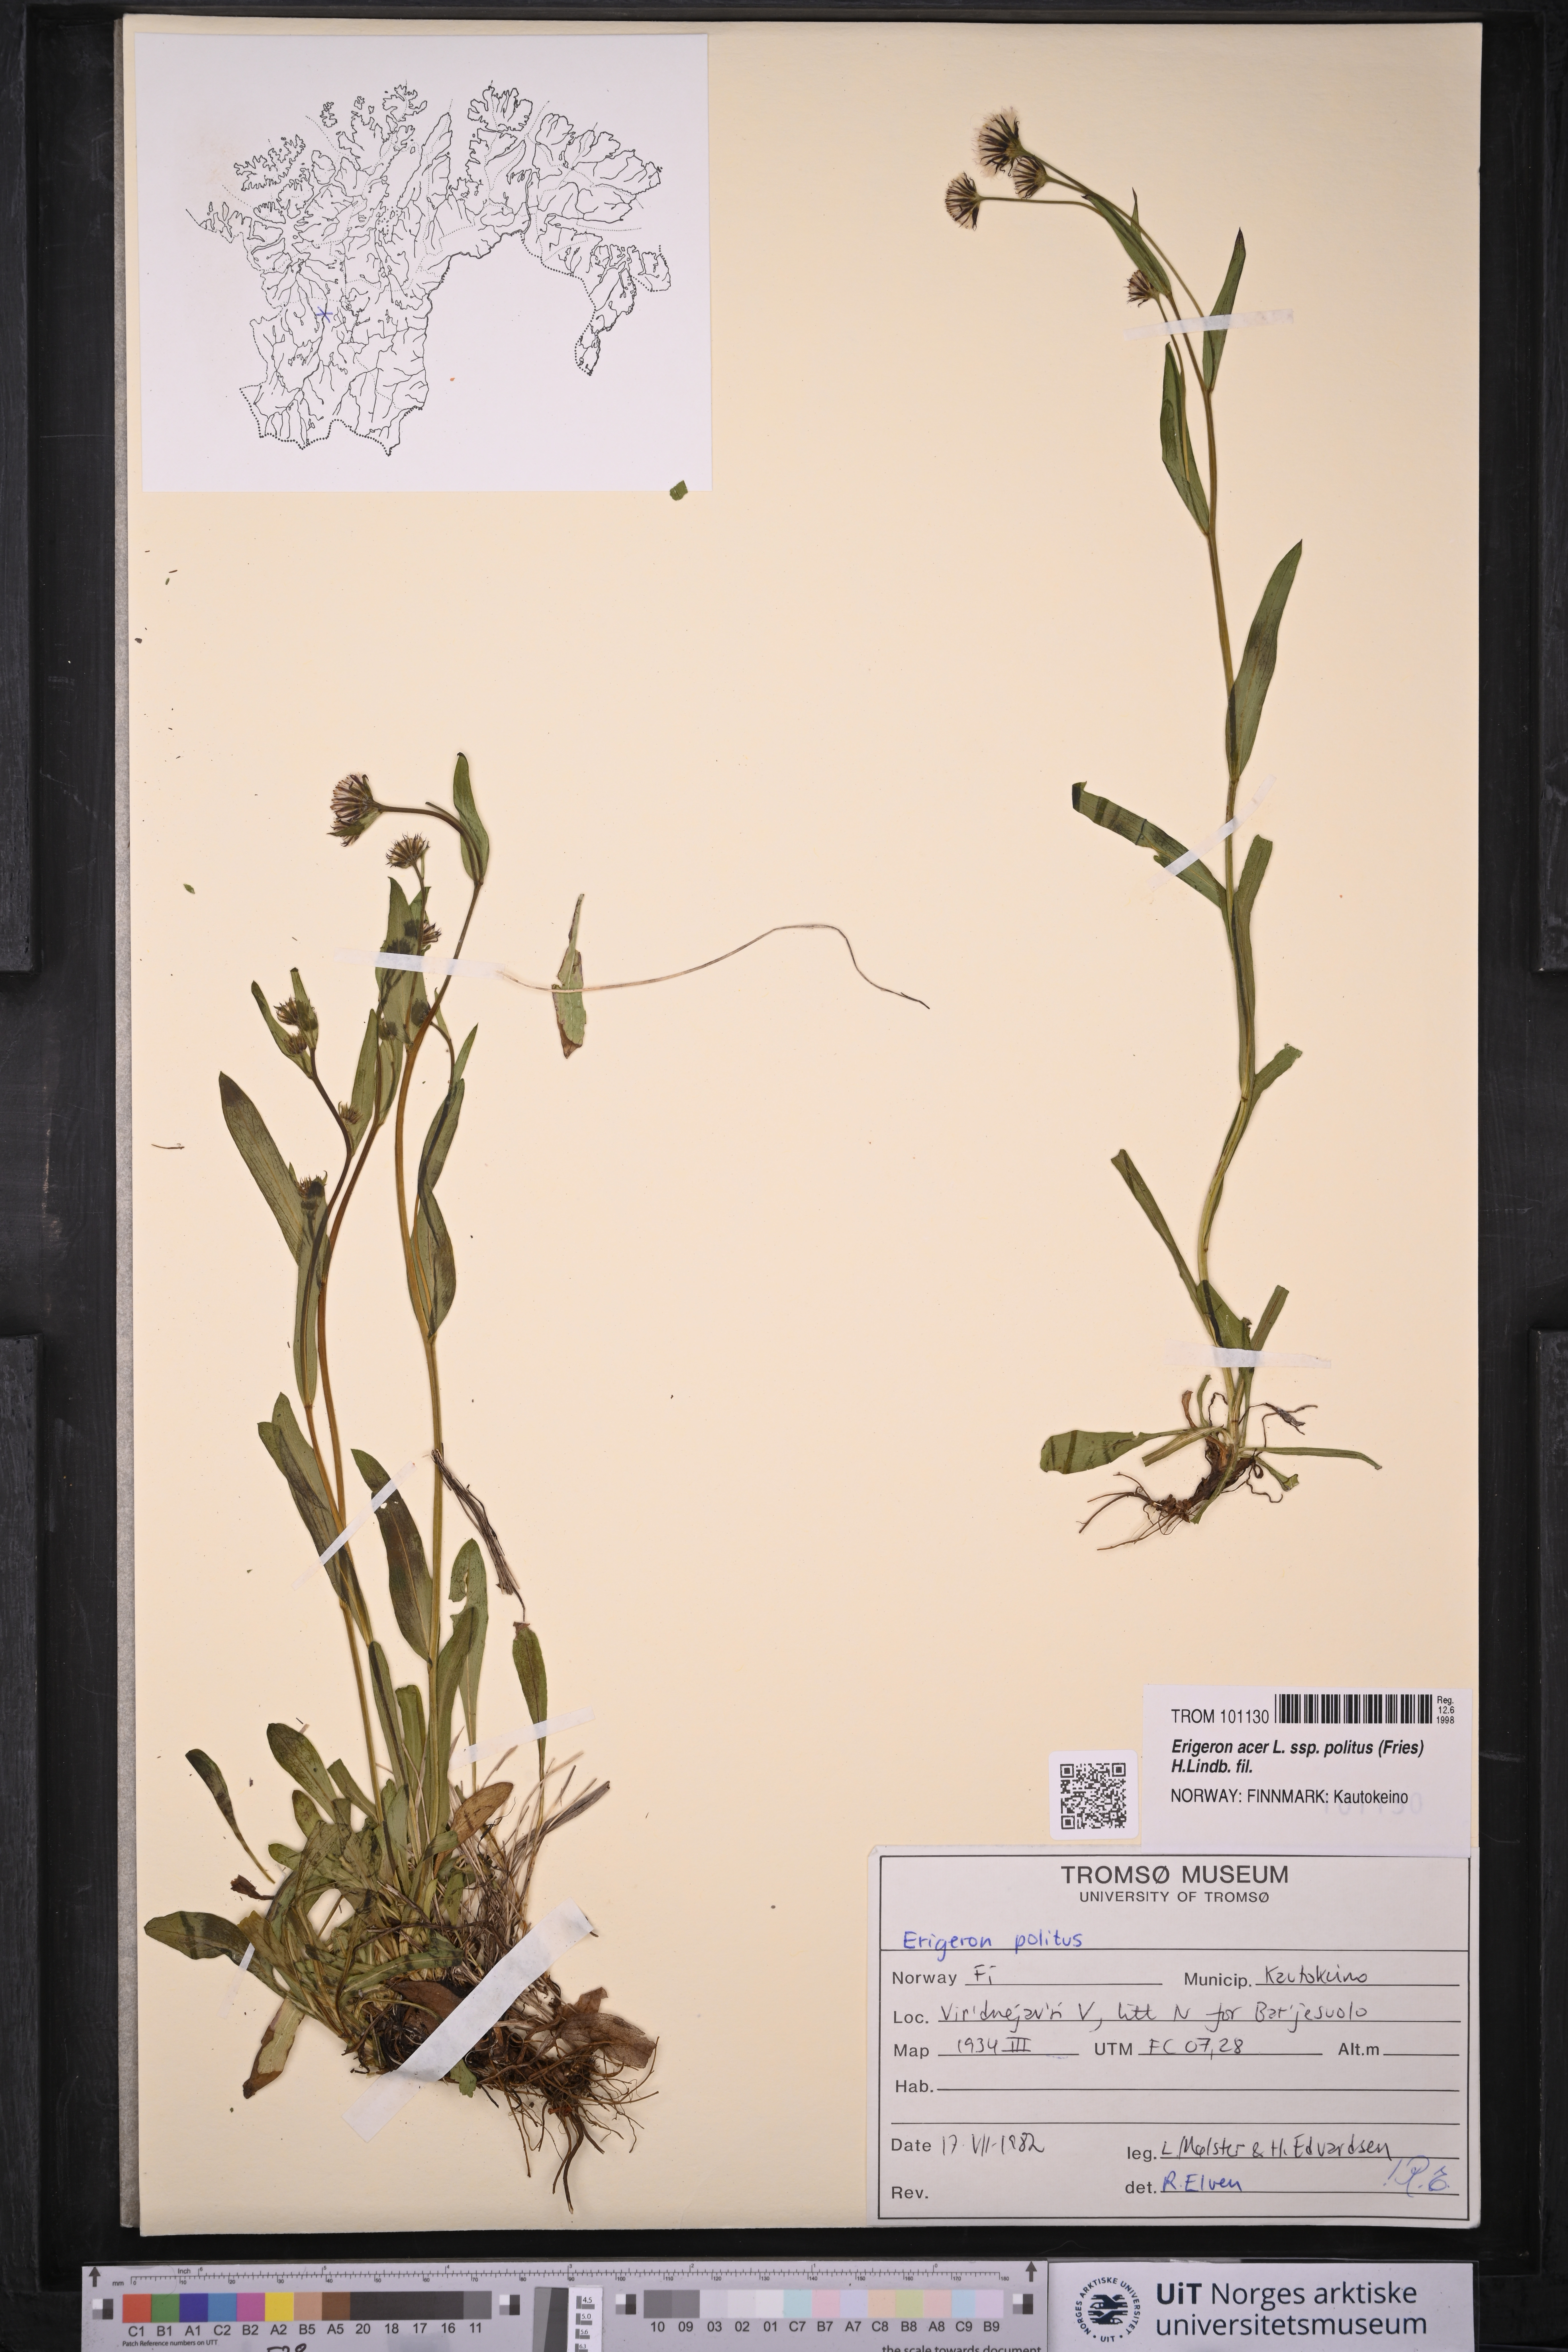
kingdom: Plantae
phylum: Tracheophyta
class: Magnoliopsida
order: Asterales
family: Asteraceae
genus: Erigeron
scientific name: Erigeron politus
